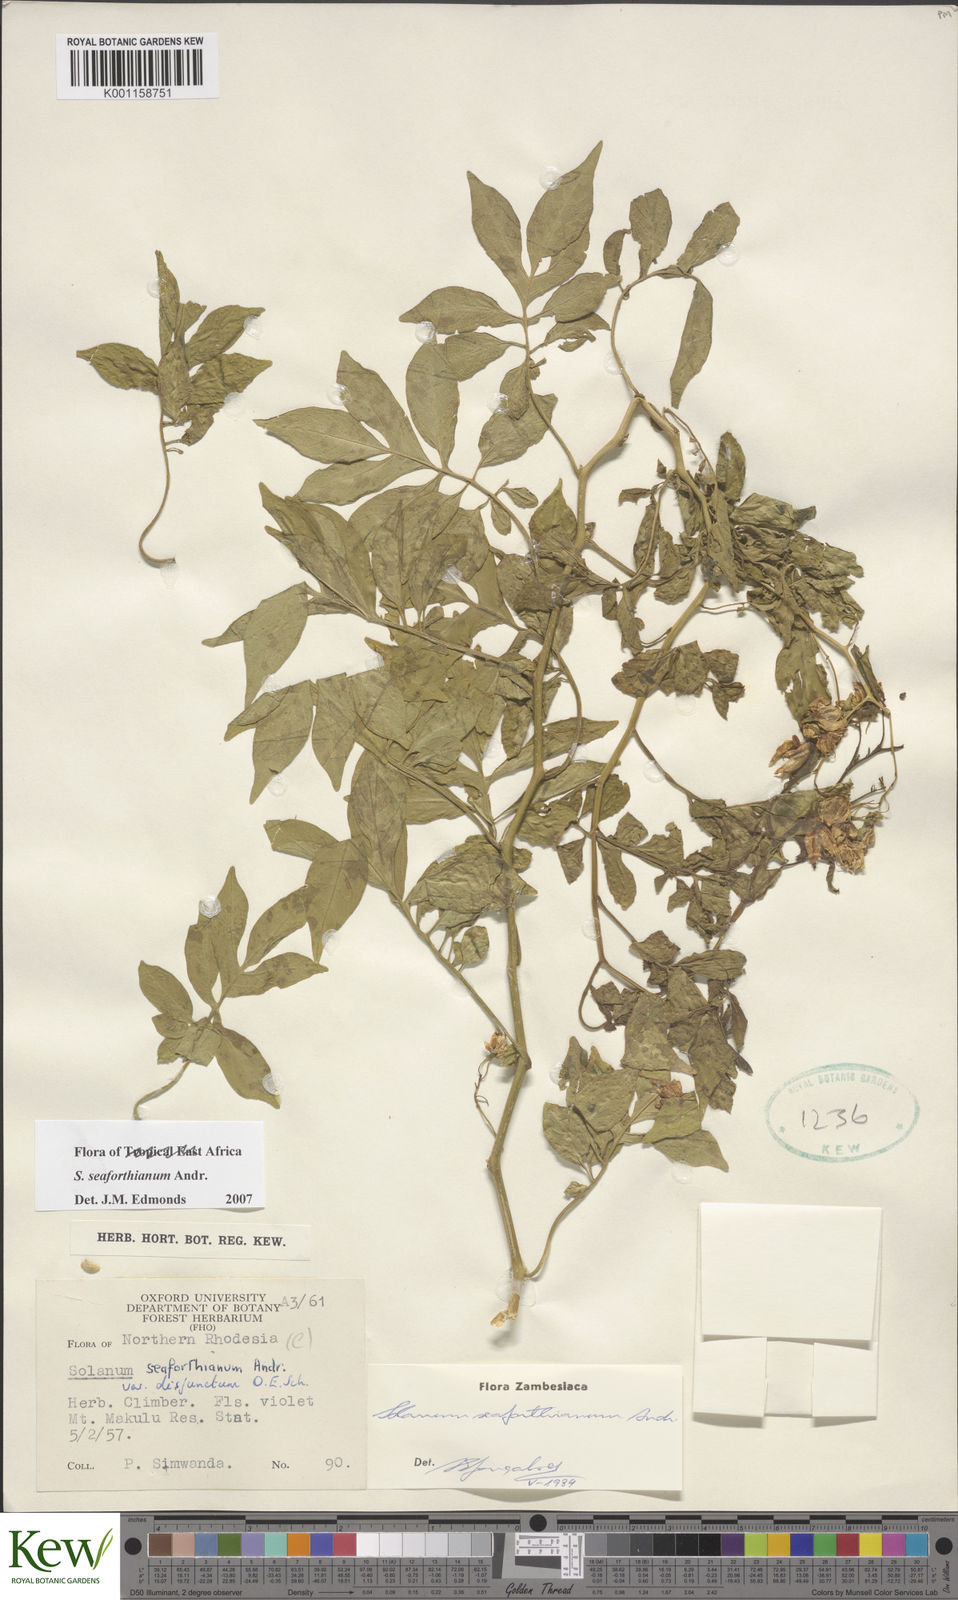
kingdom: Plantae
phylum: Tracheophyta
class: Magnoliopsida
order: Solanales
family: Solanaceae
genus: Solanum
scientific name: Solanum seaforthianum
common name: Brazilian nightshade
